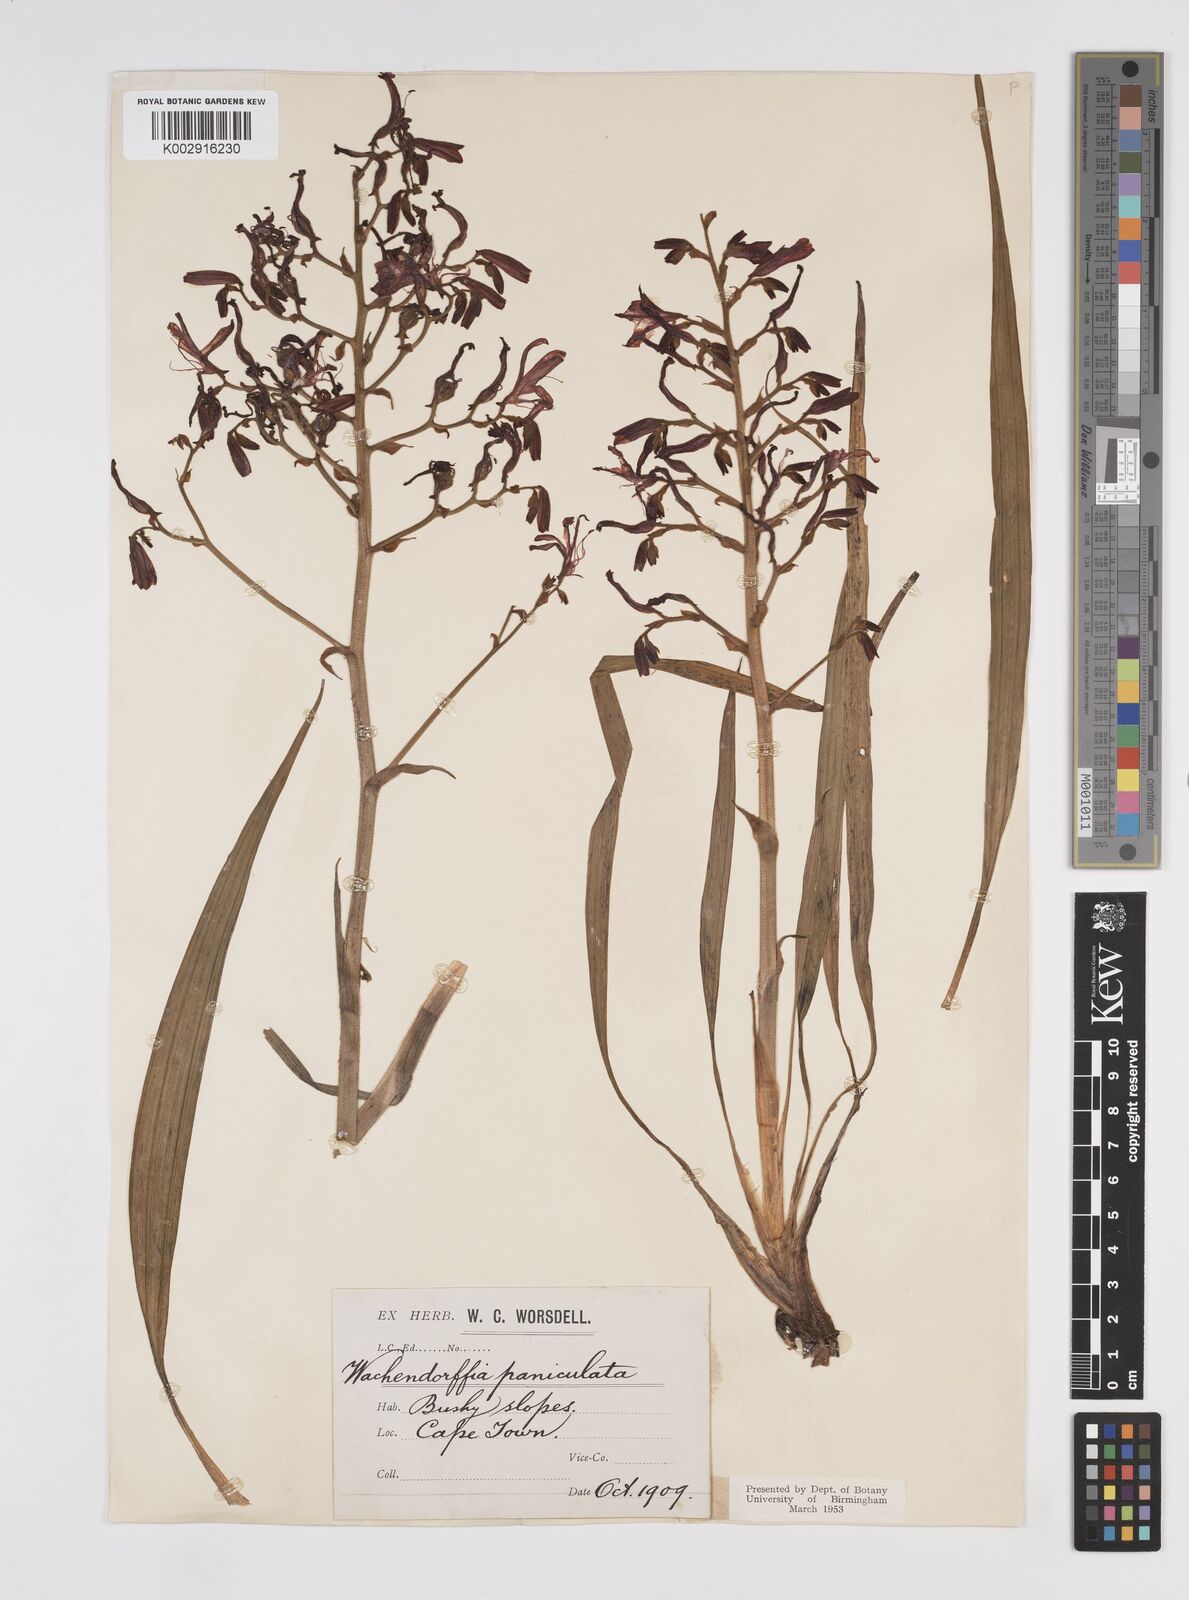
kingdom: Plantae
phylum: Tracheophyta
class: Liliopsida
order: Commelinales
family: Haemodoraceae
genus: Wachendorfia
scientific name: Wachendorfia paniculata
